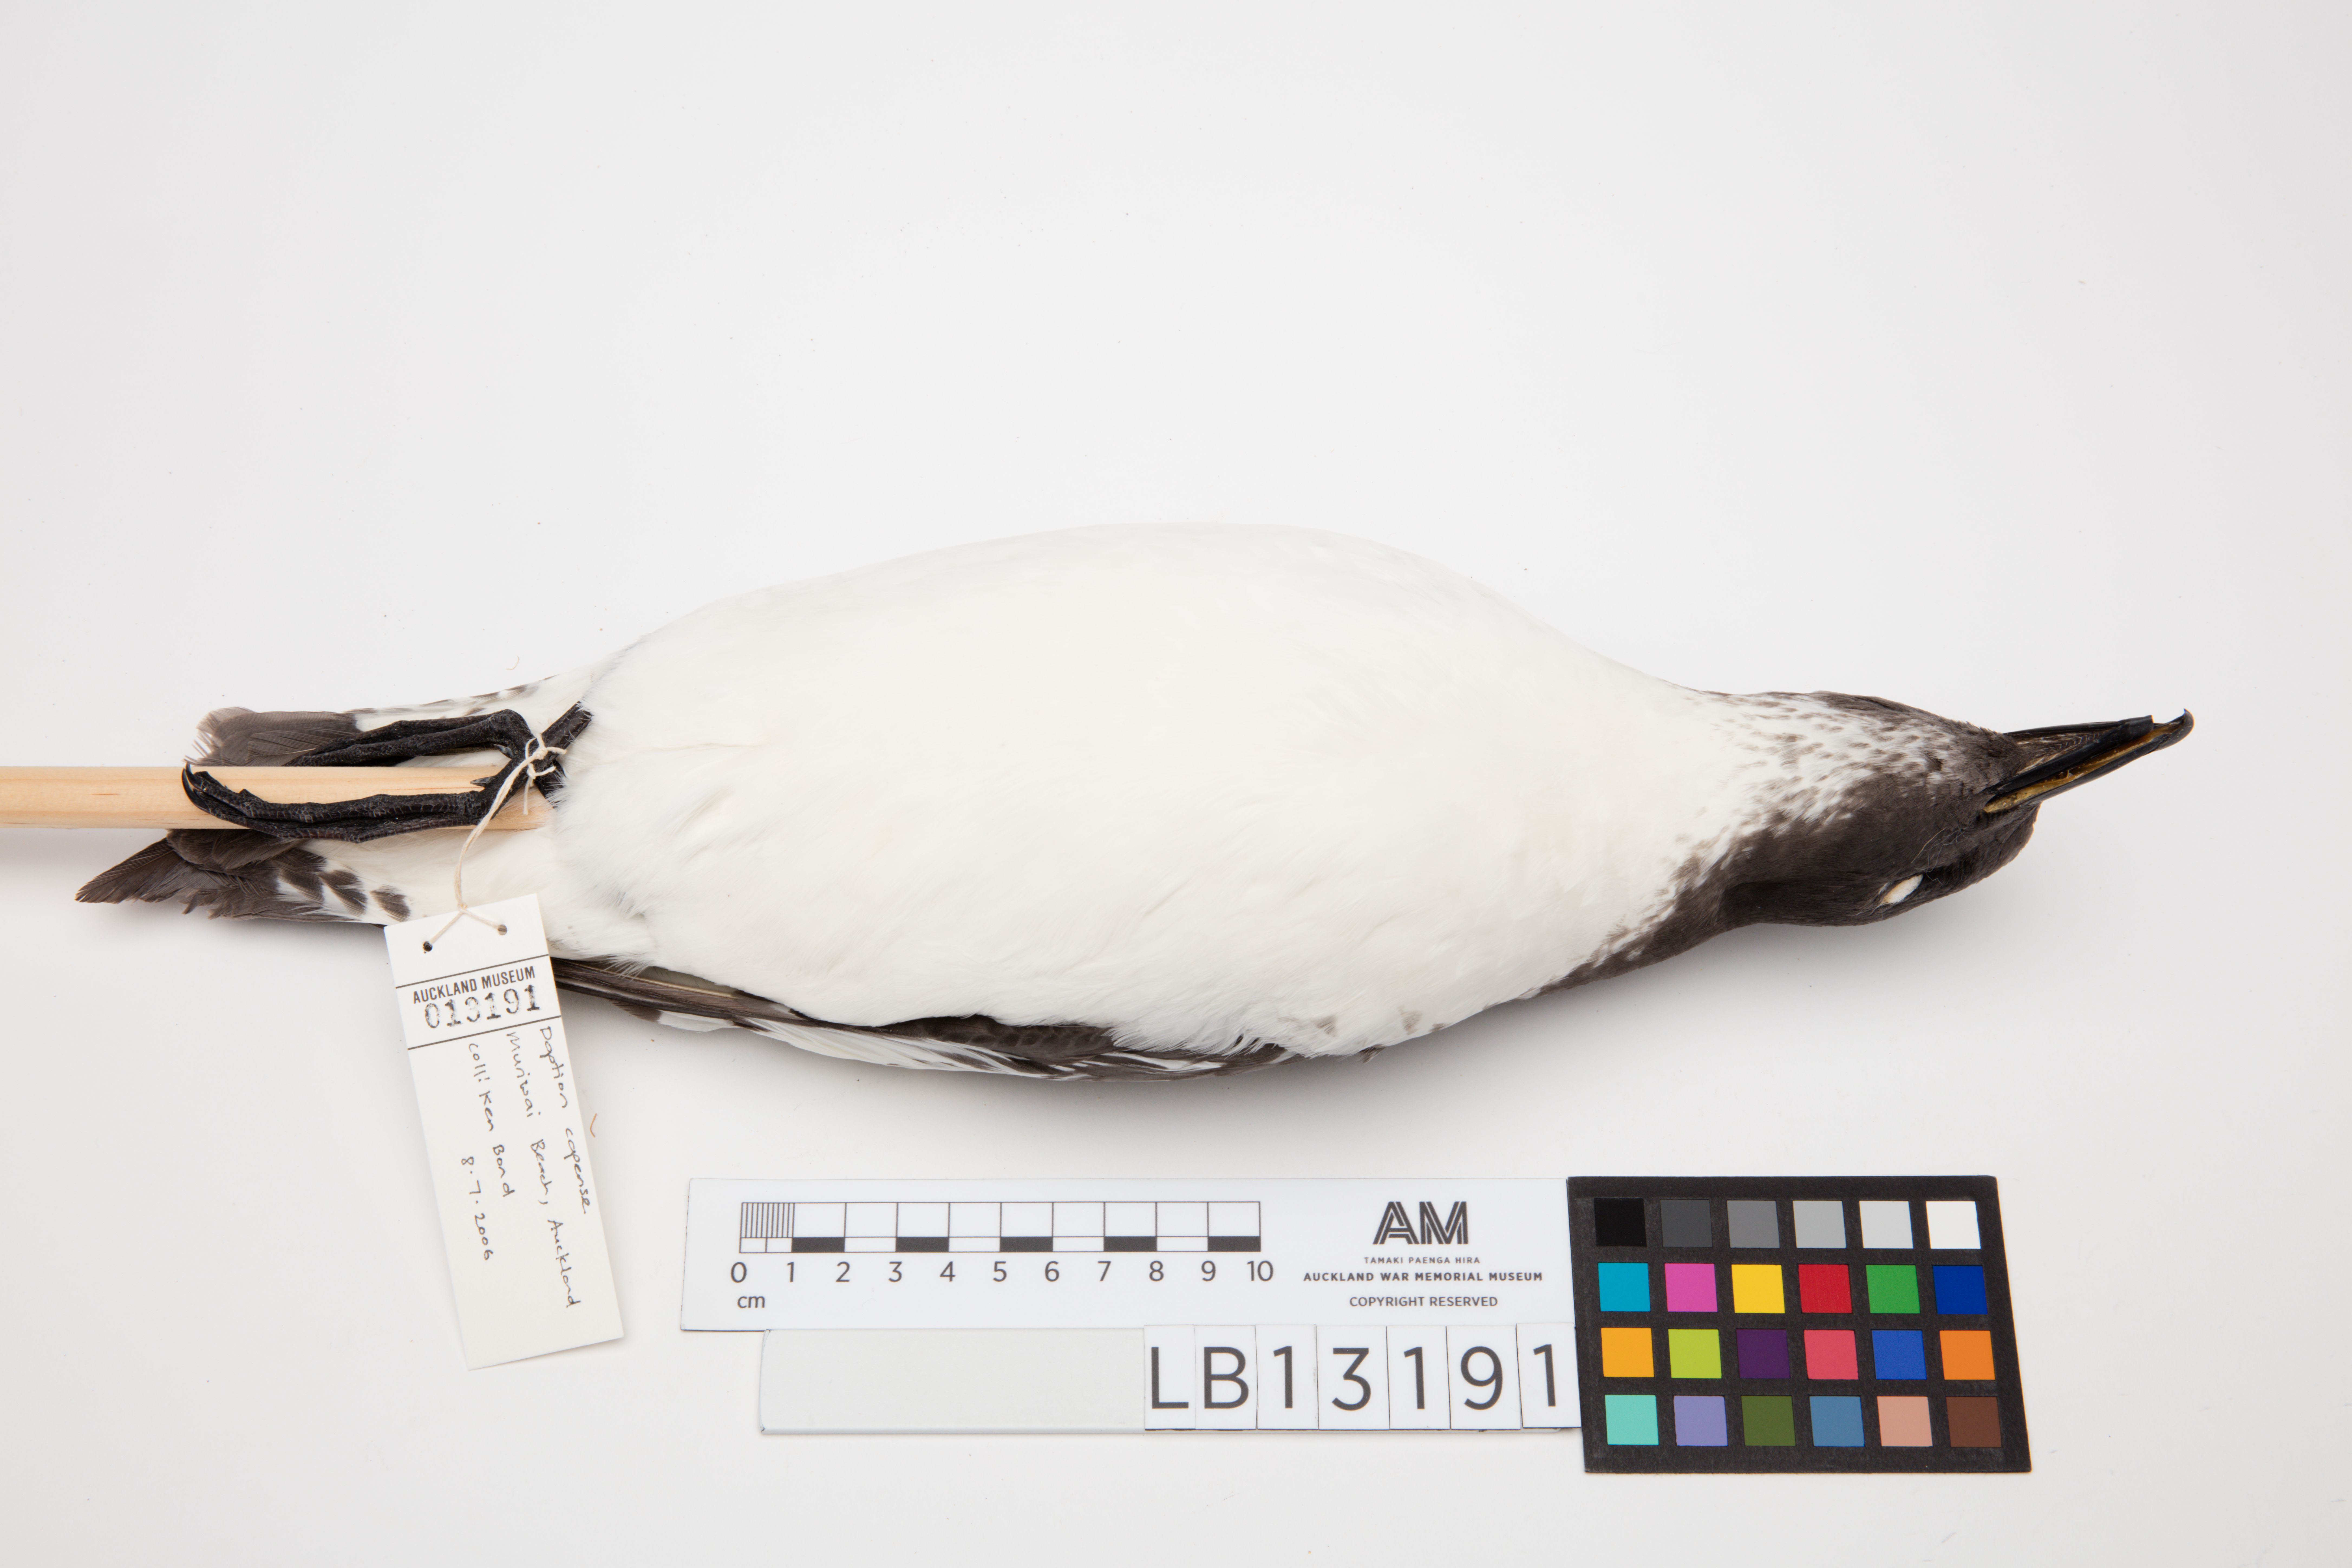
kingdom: Animalia
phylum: Chordata
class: Aves
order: Procellariiformes
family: Procellariidae
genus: Daption
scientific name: Daption capense
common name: Cape petrel
